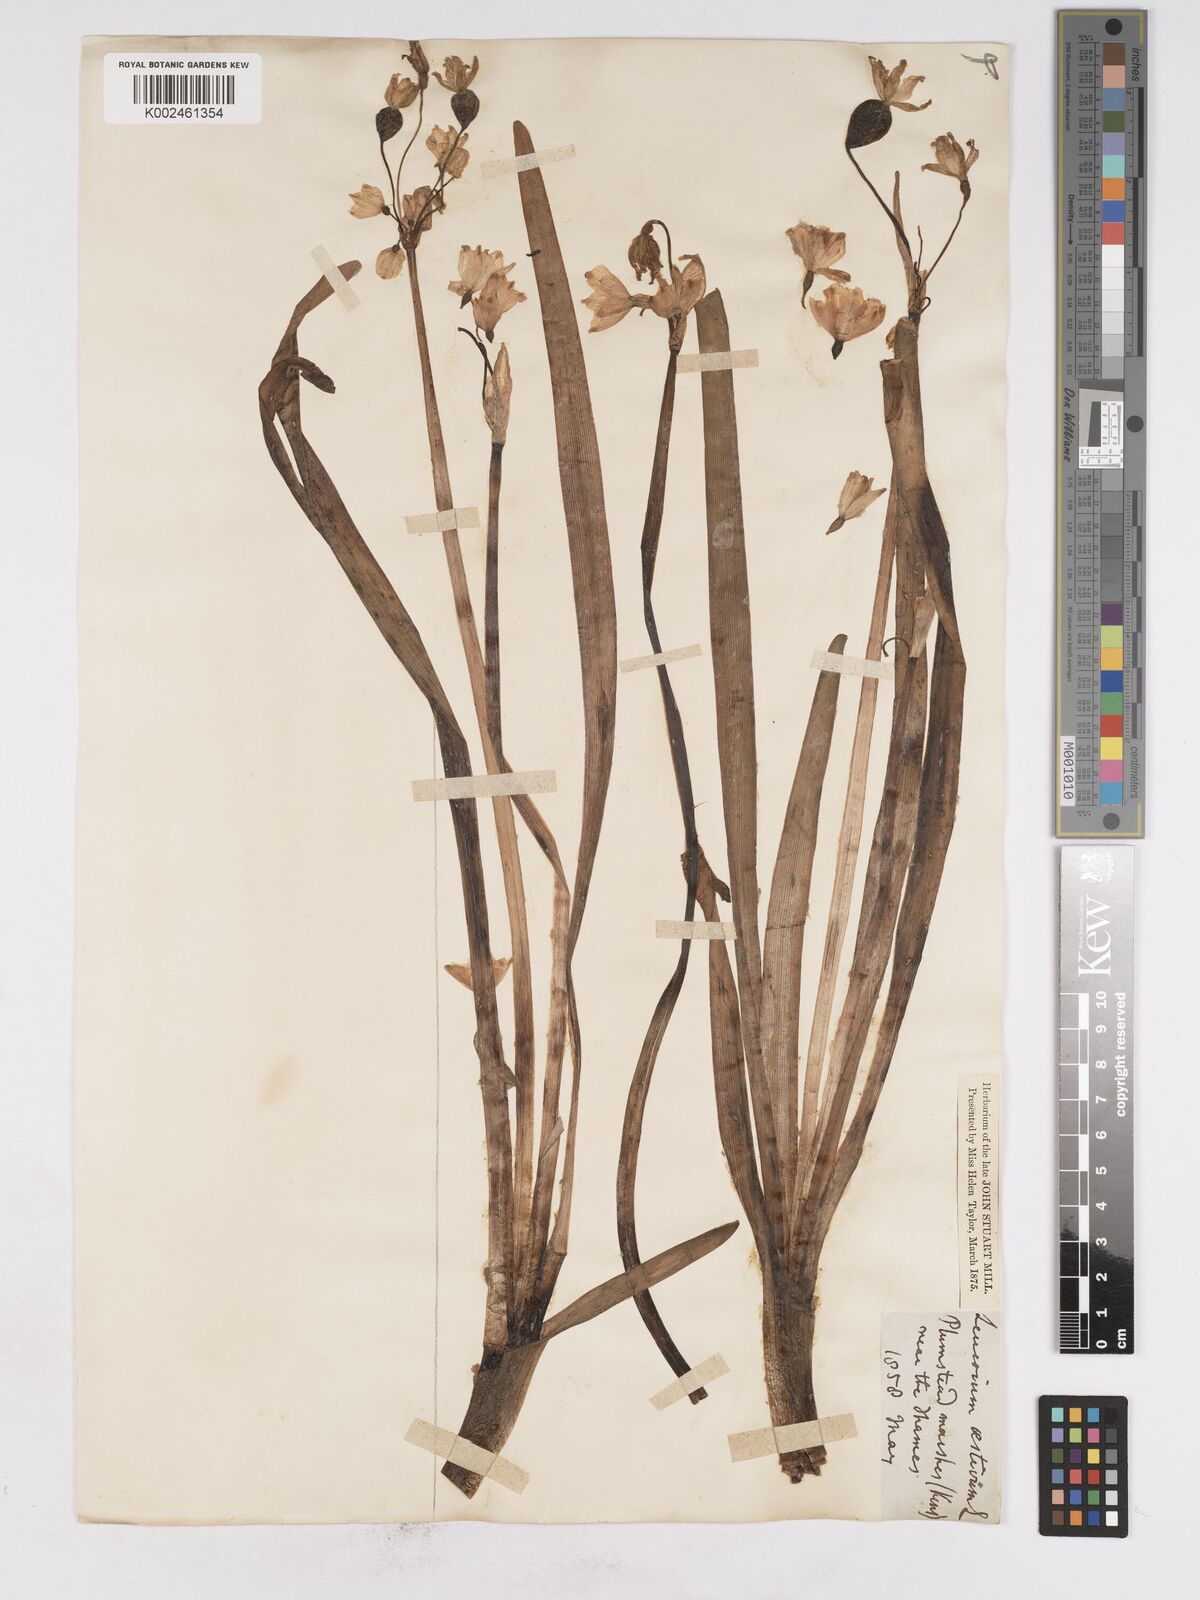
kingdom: Plantae
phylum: Tracheophyta
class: Liliopsida
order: Asparagales
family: Amaryllidaceae
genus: Leucojum
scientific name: Leucojum aestivum
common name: Summer snowflake
